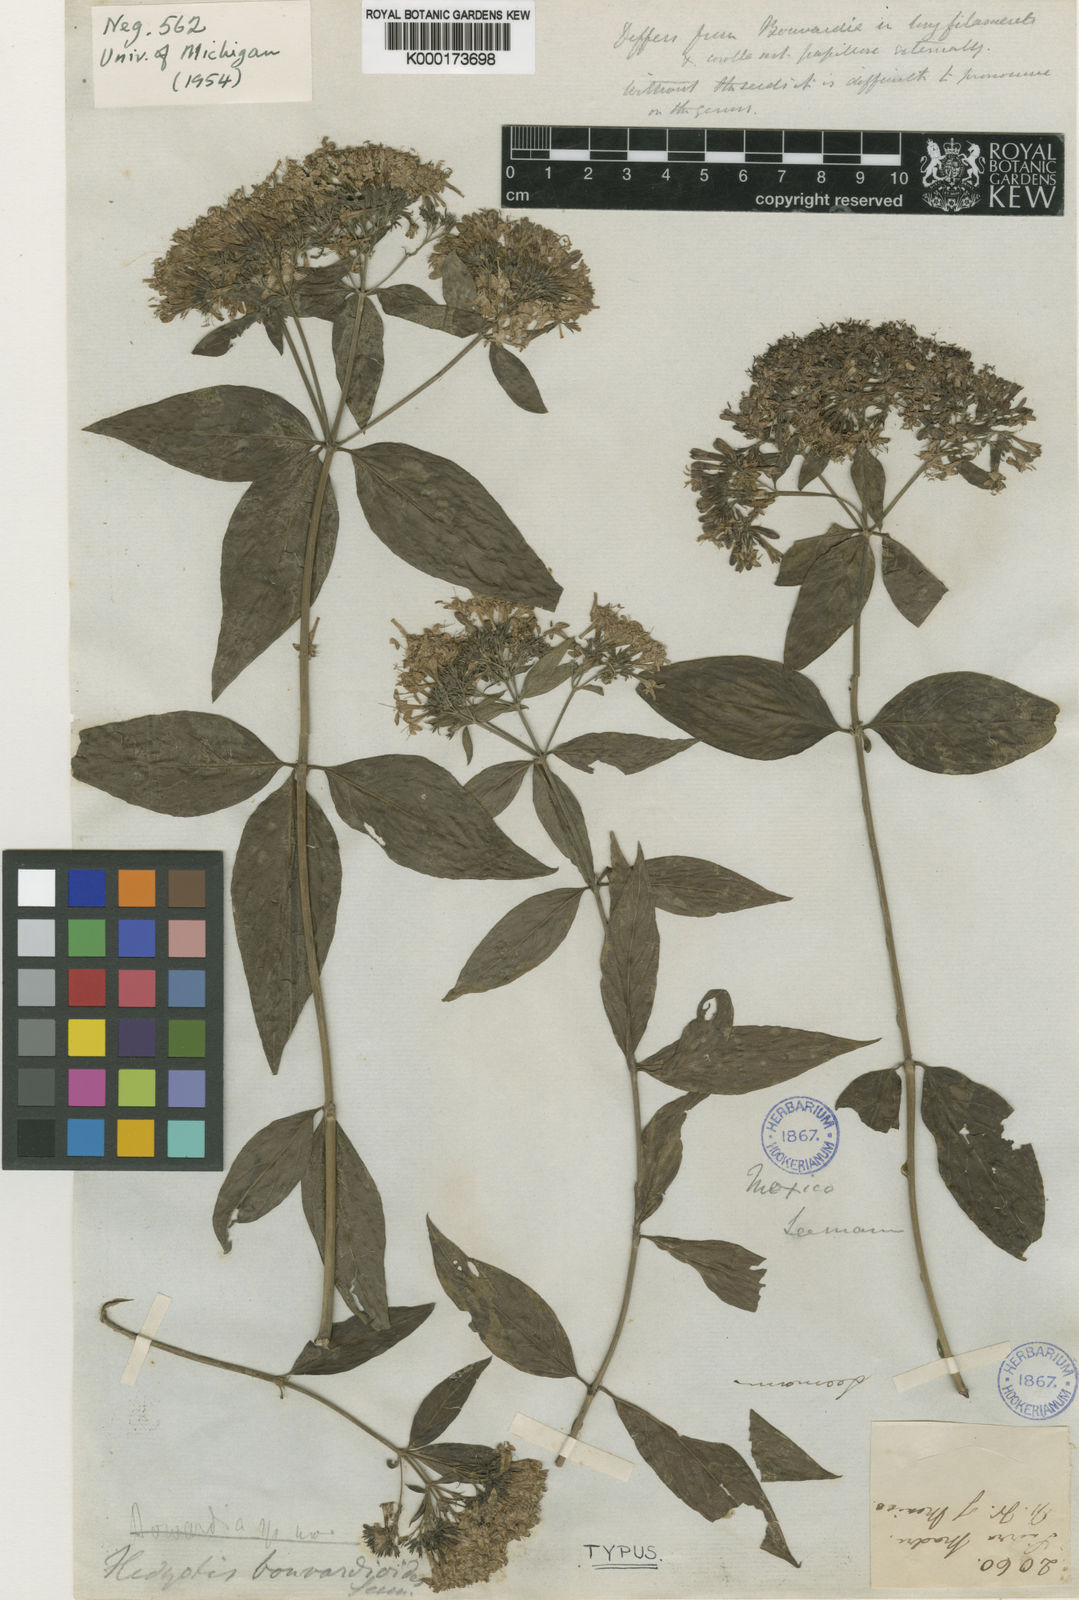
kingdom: Plantae
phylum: Tracheophyta
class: Magnoliopsida
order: Gentianales
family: Rubiaceae
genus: Bouvardia
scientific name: Bouvardia bouvardioides
